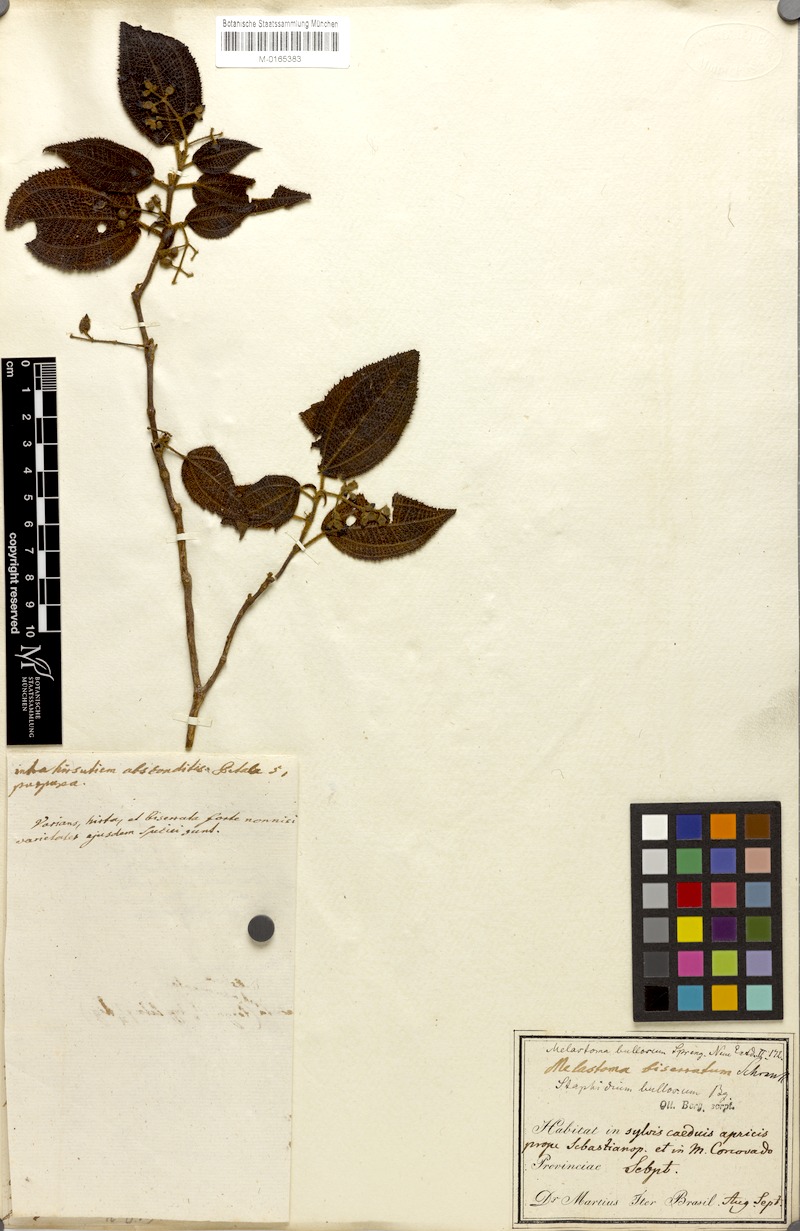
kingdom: Plantae
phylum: Tracheophyta
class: Magnoliopsida
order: Myrtales
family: Melastomataceae
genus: Miconia
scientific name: Miconia biserrata
